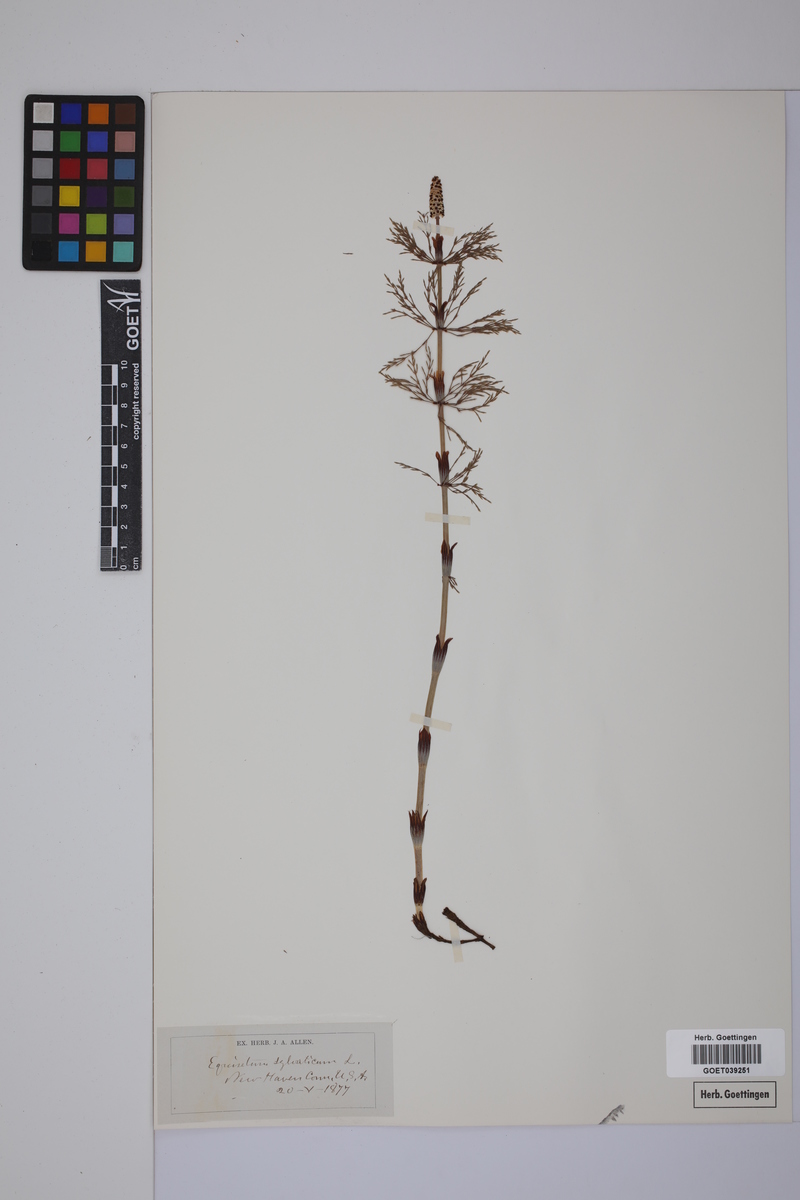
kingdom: Plantae
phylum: Tracheophyta
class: Polypodiopsida
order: Equisetales
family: Equisetaceae
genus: Equisetum
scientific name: Equisetum sylvaticum
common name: Wood horsetail
